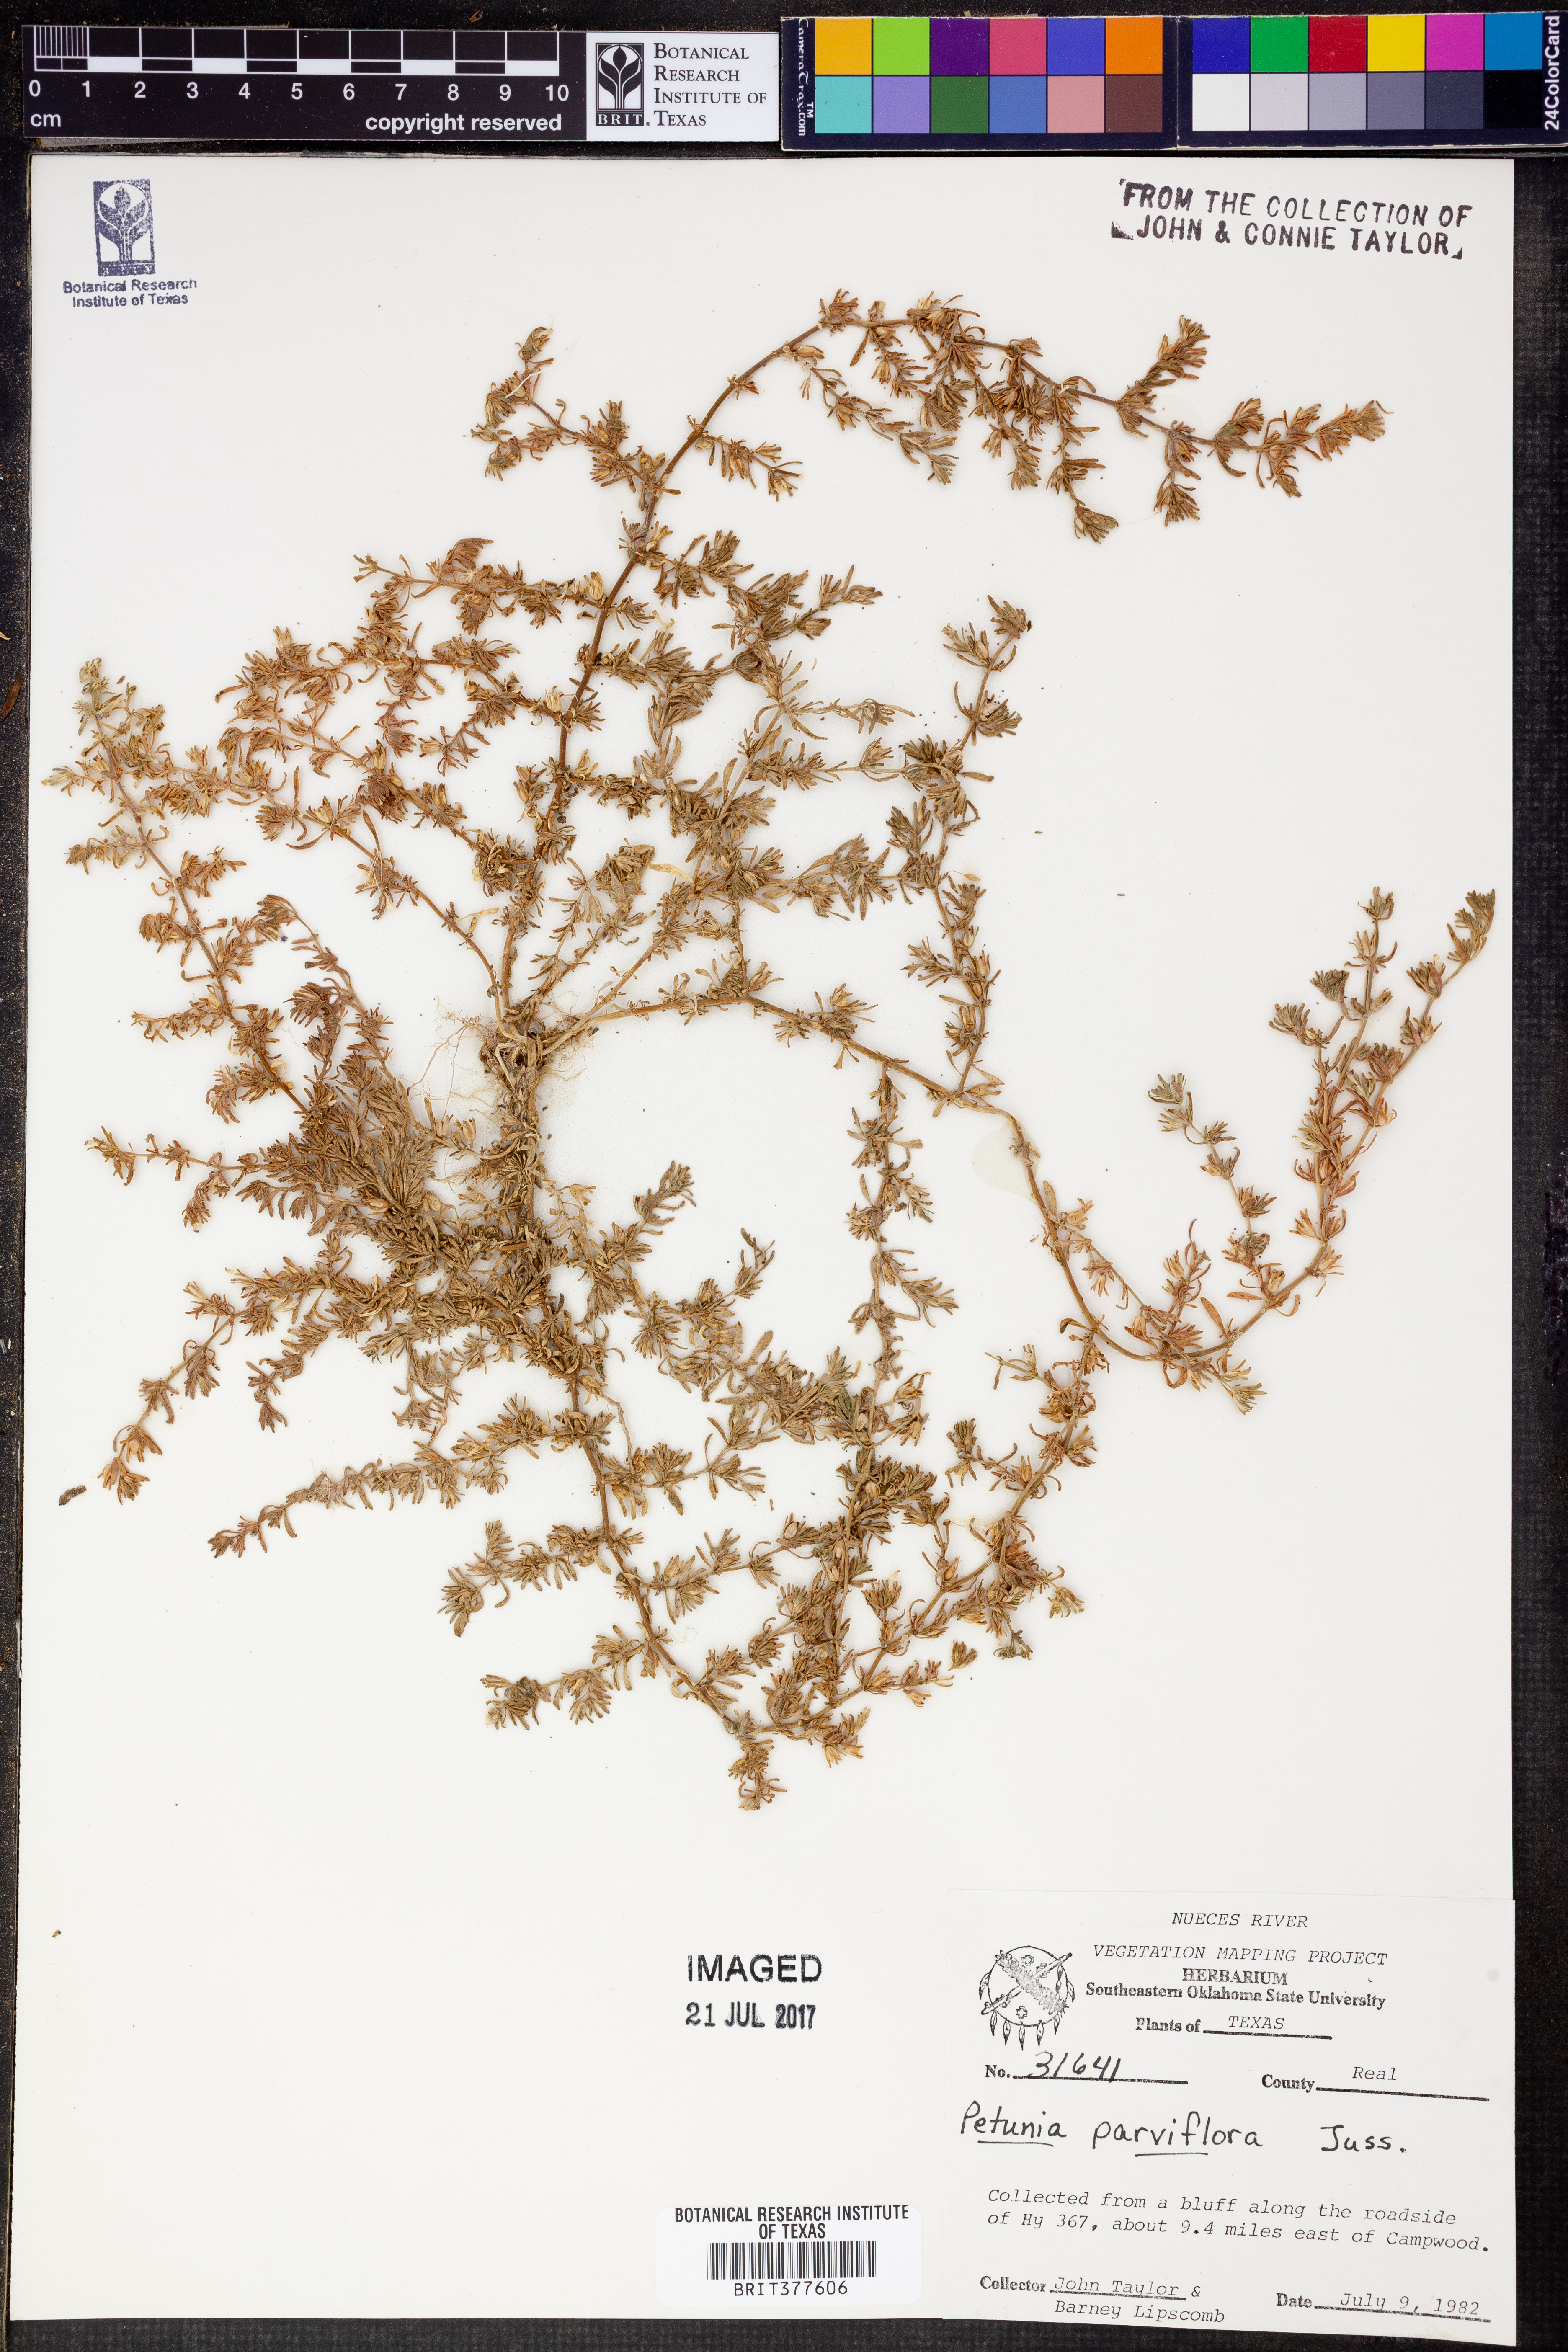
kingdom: Plantae
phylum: Tracheophyta
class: Magnoliopsida
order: Solanales
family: Solanaceae
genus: Calibrachoa
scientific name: Calibrachoa parviflora
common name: Seaside petunia
